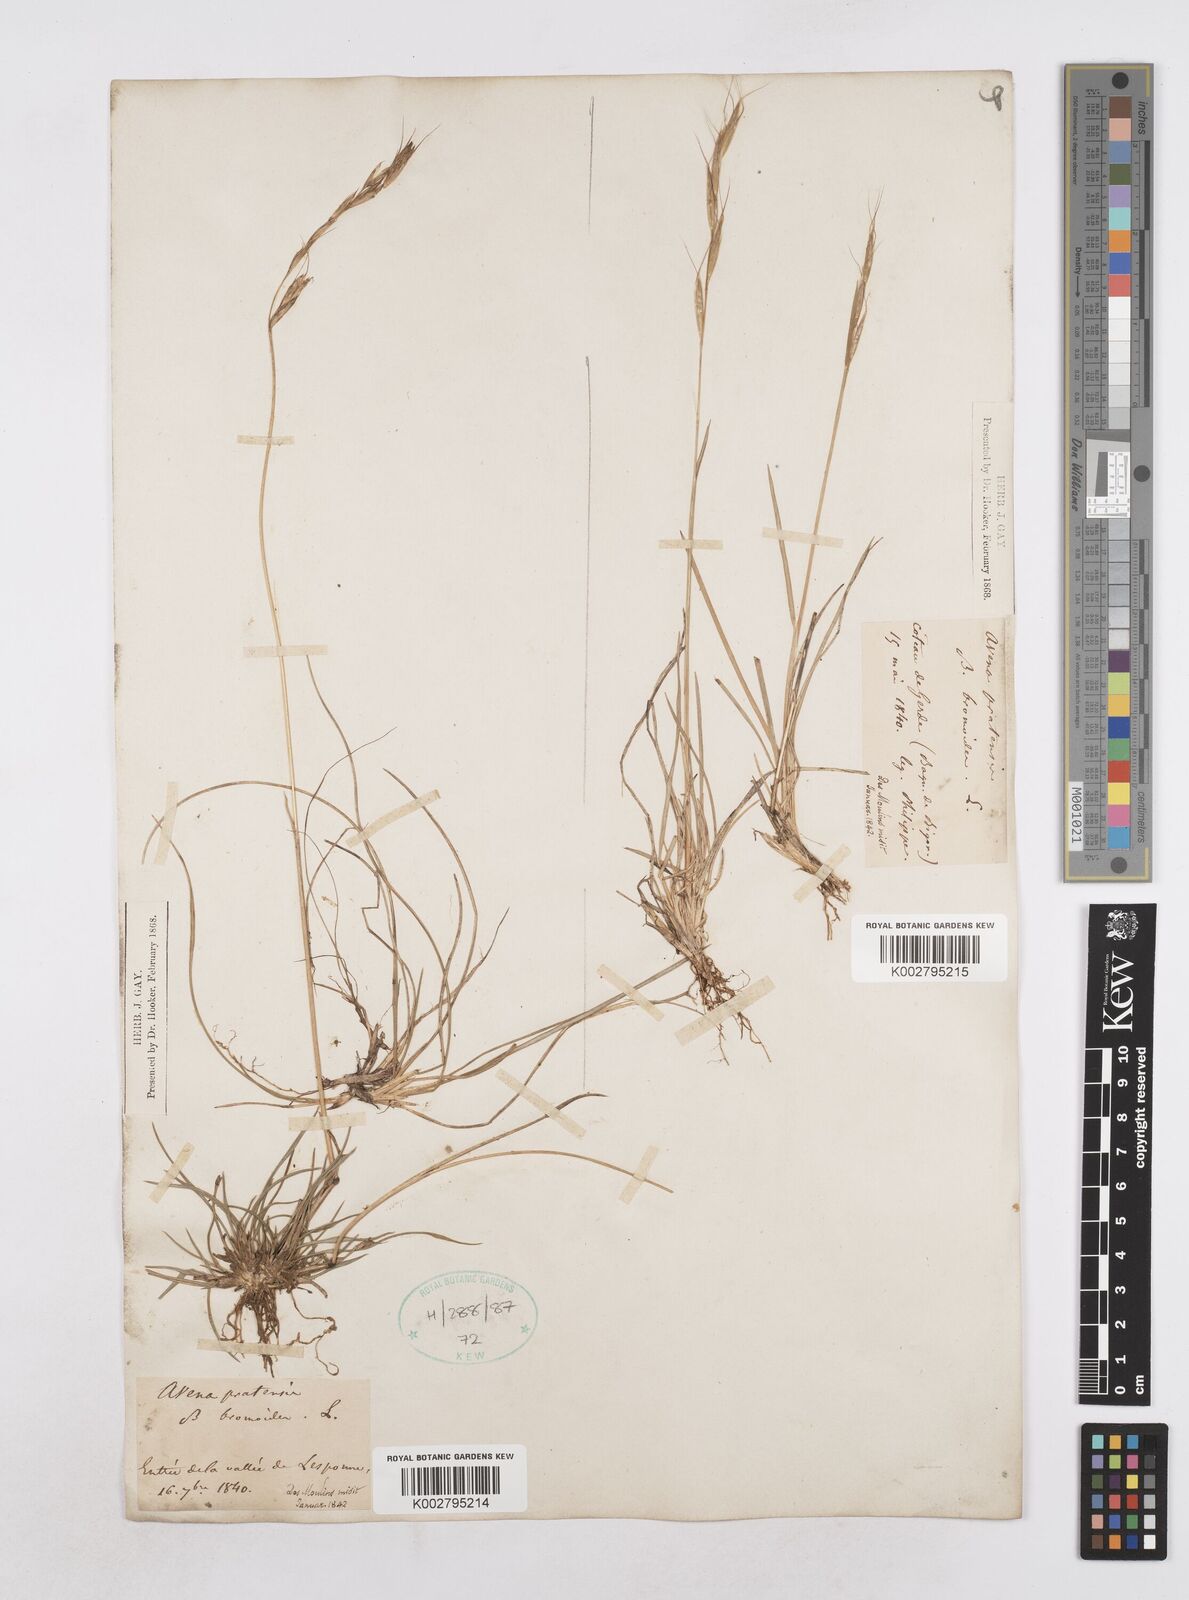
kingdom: Plantae
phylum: Tracheophyta
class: Liliopsida
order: Poales
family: Poaceae
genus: Helictochloa
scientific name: Helictochloa bromoides
